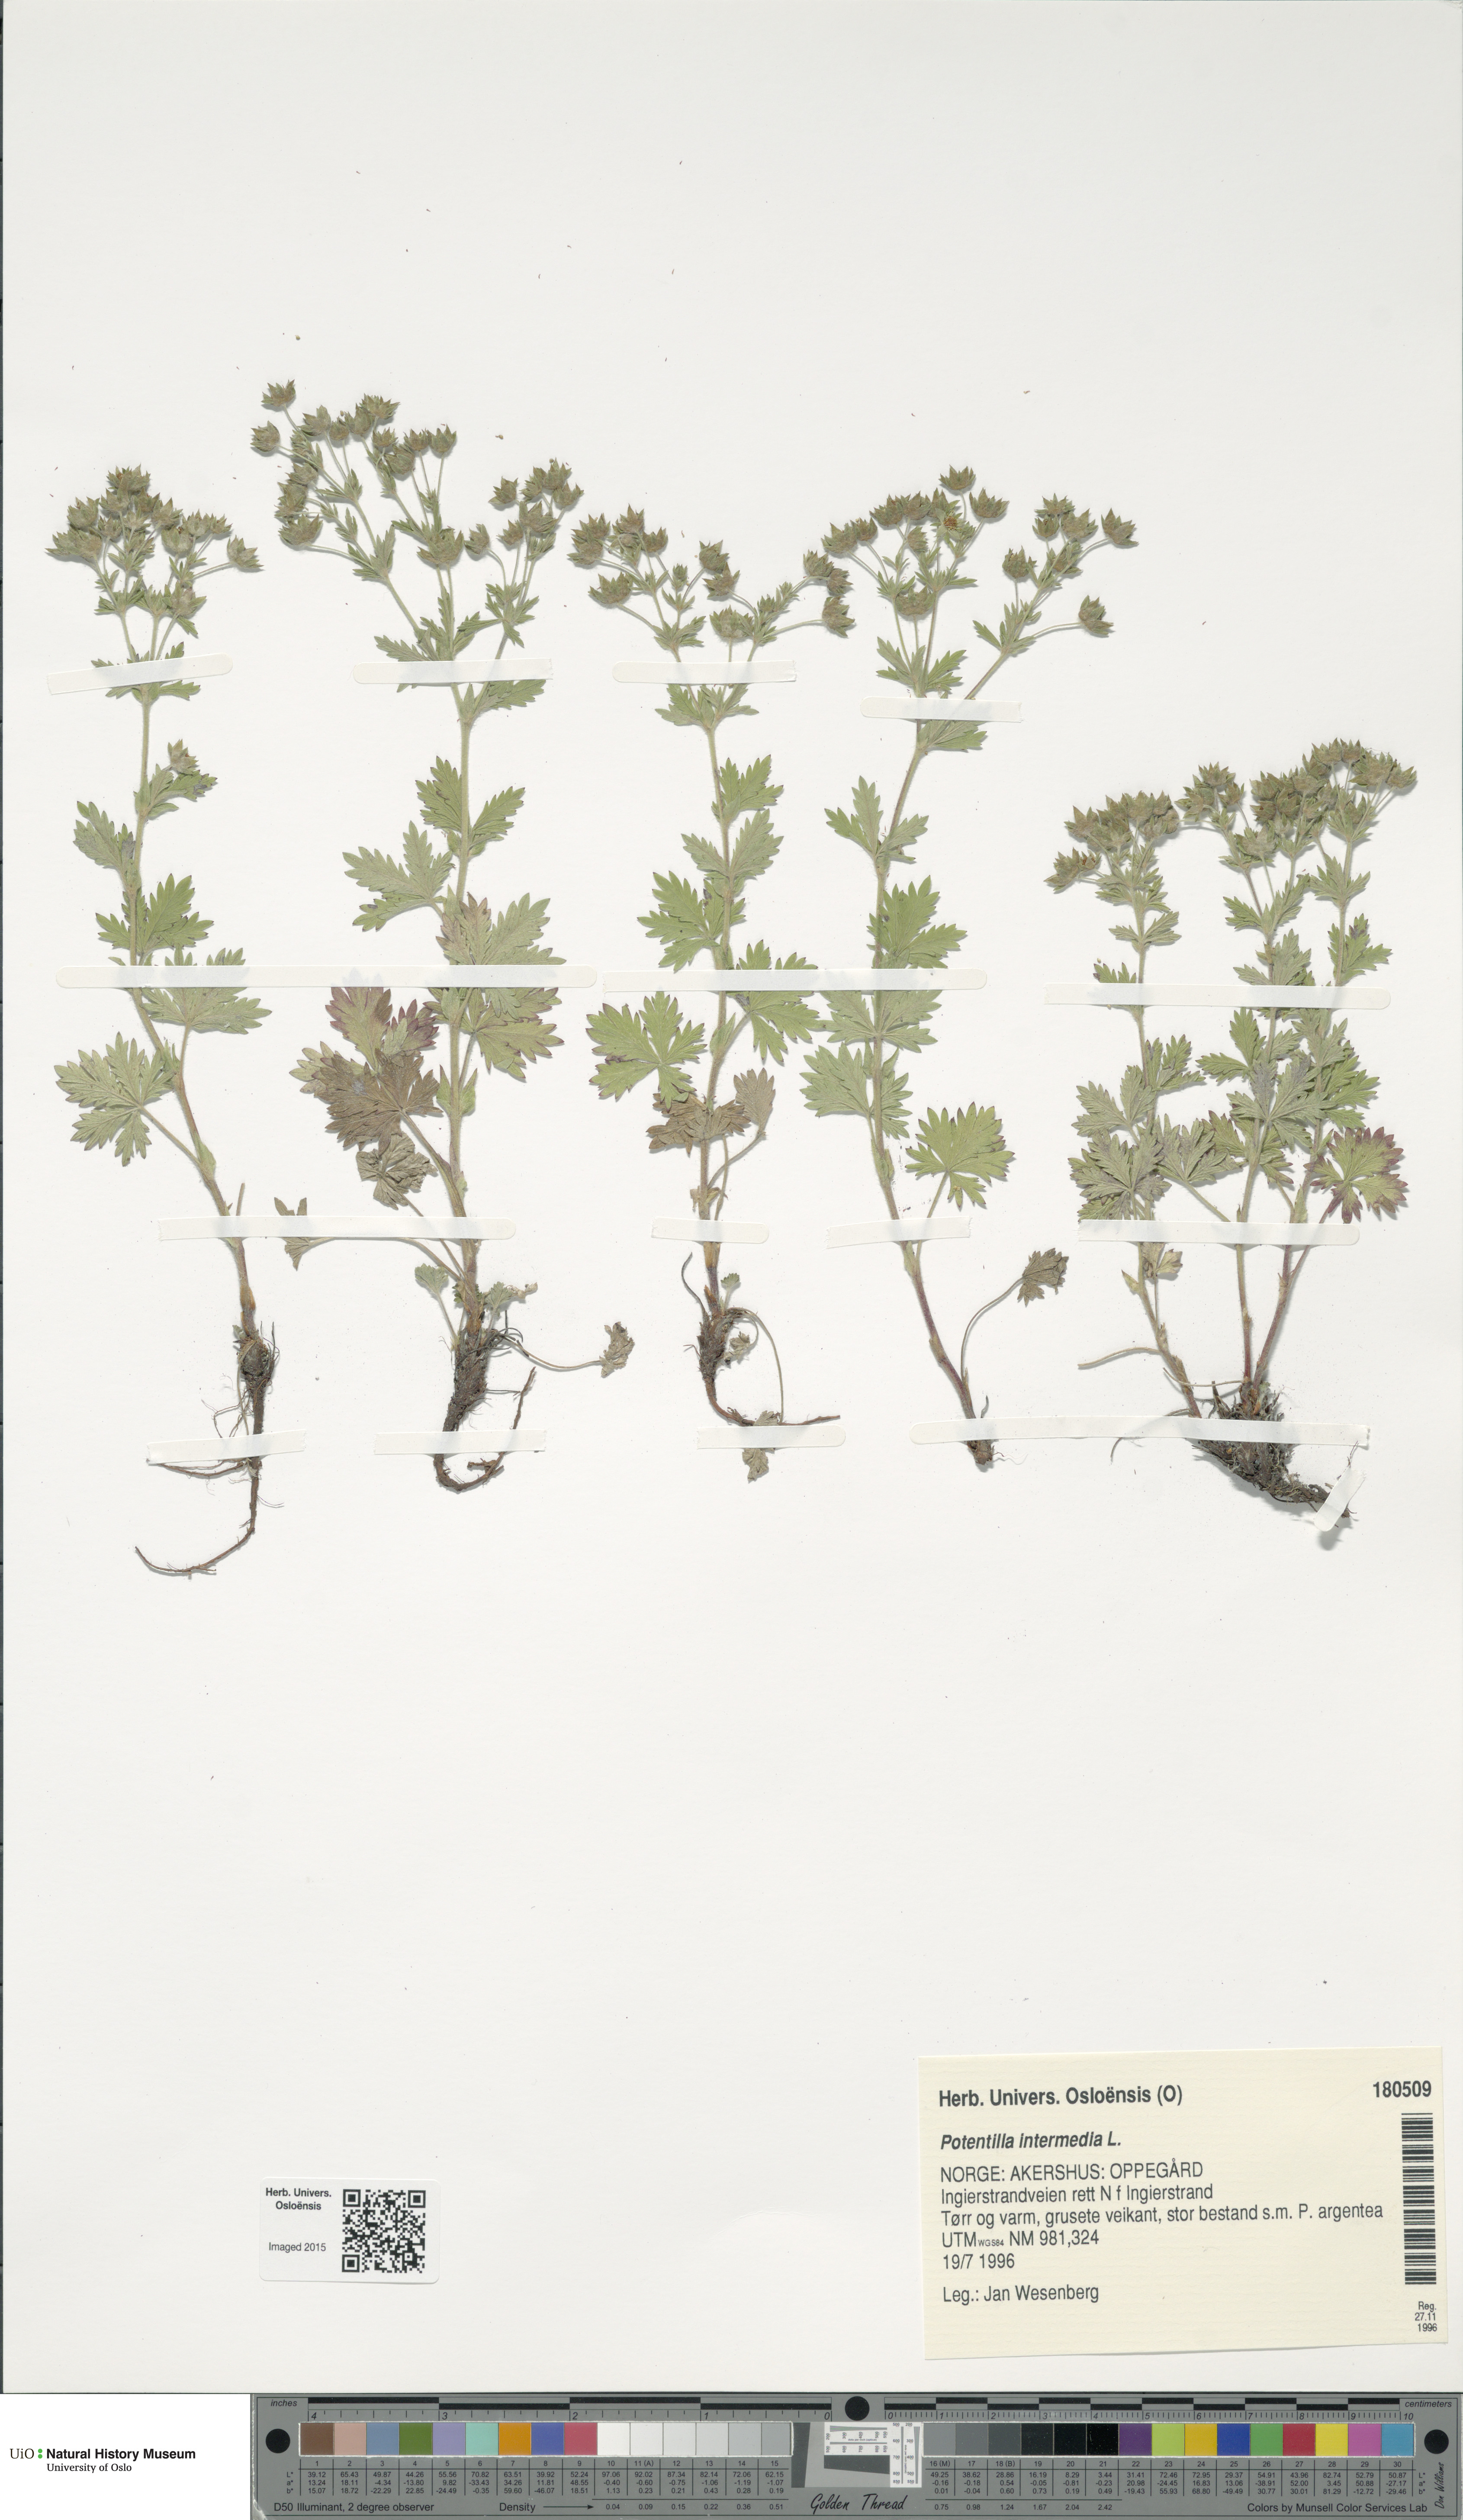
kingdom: Plantae
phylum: Tracheophyta
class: Magnoliopsida
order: Rosales
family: Rosaceae
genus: Potentilla
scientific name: Potentilla intermedia
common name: Downy cinquefoil
